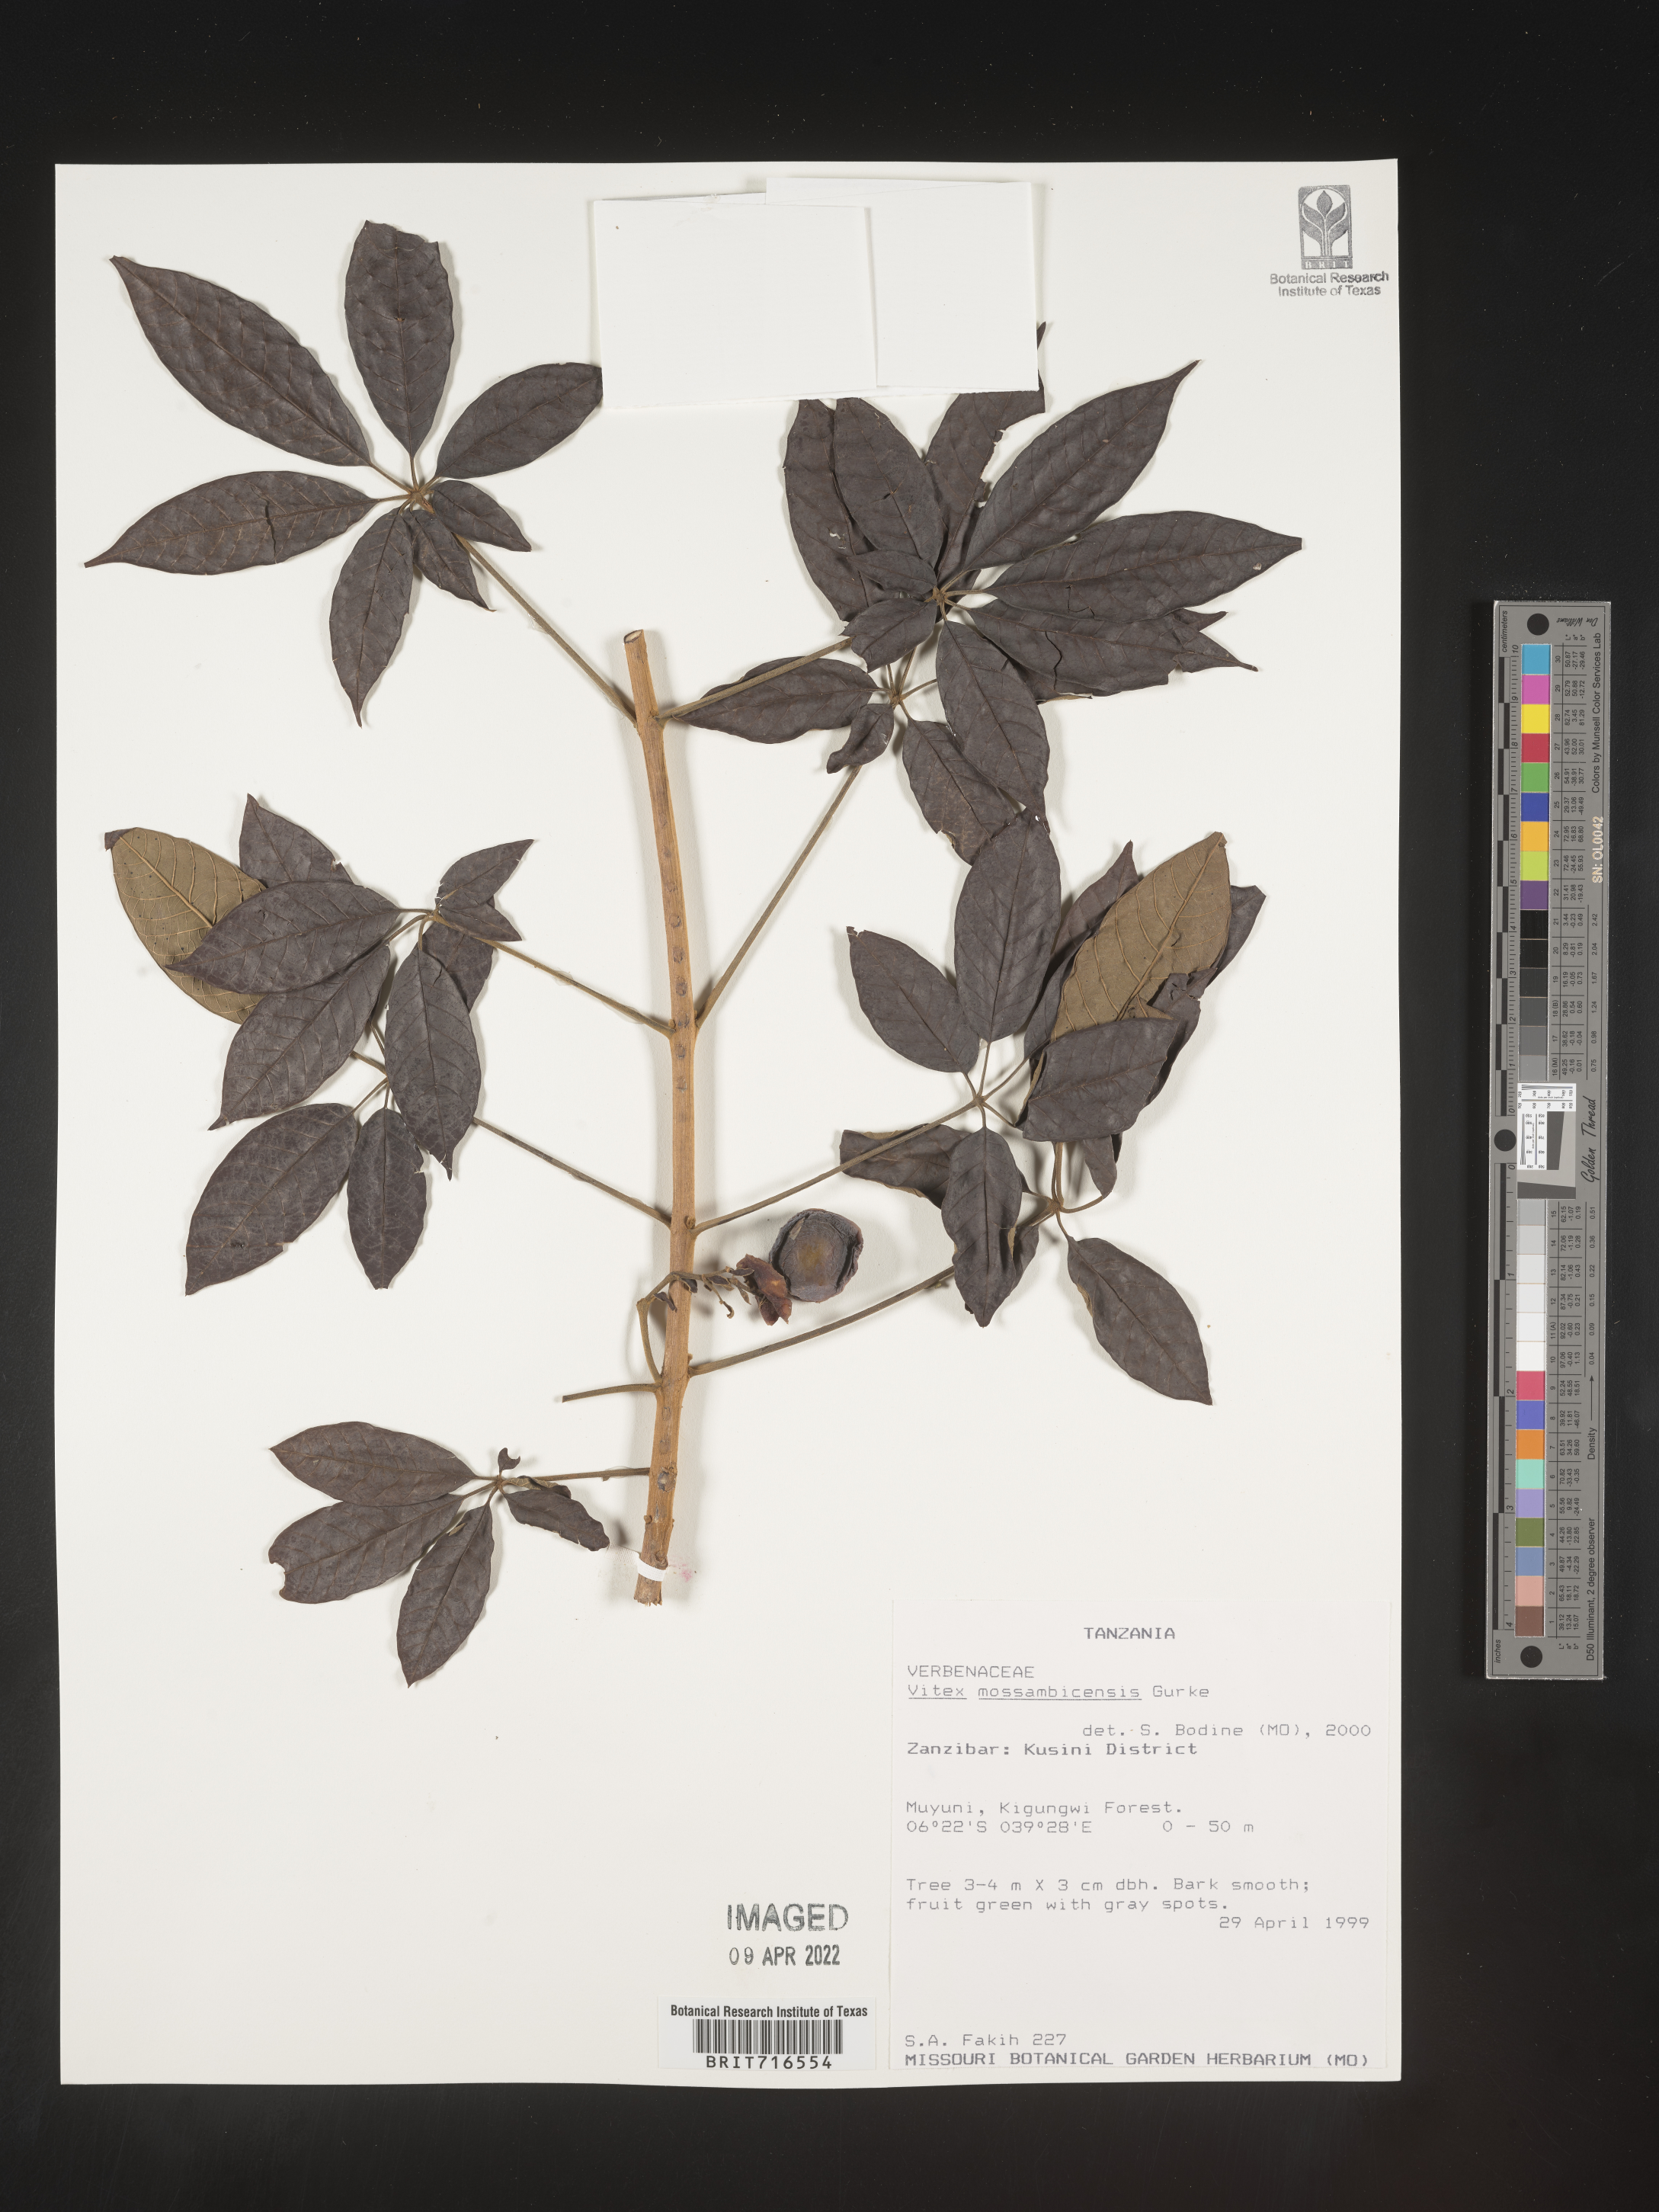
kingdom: Plantae
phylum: Tracheophyta
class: Magnoliopsida
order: Lamiales
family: Lamiaceae
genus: Vitex
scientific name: Vitex
